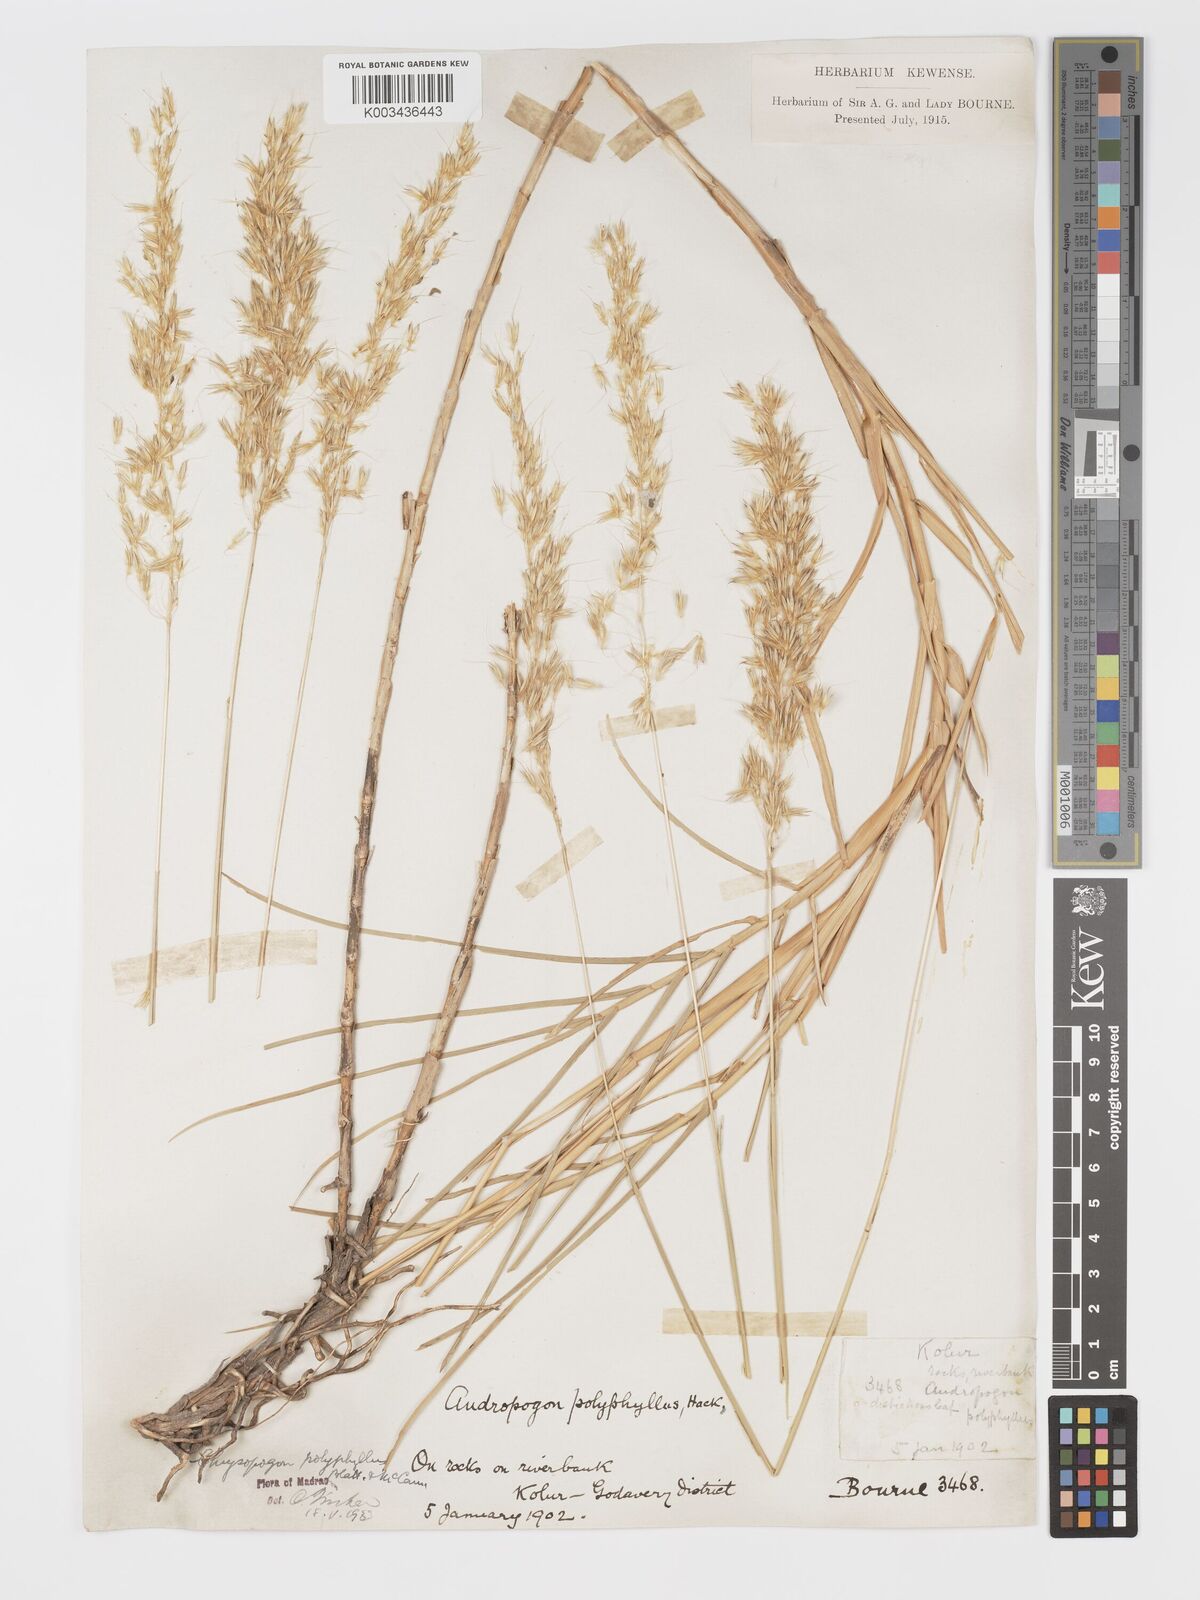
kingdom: Plantae
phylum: Tracheophyta
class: Liliopsida
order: Poales
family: Poaceae
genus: Chrysopogon
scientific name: Chrysopogon polyphyllus
